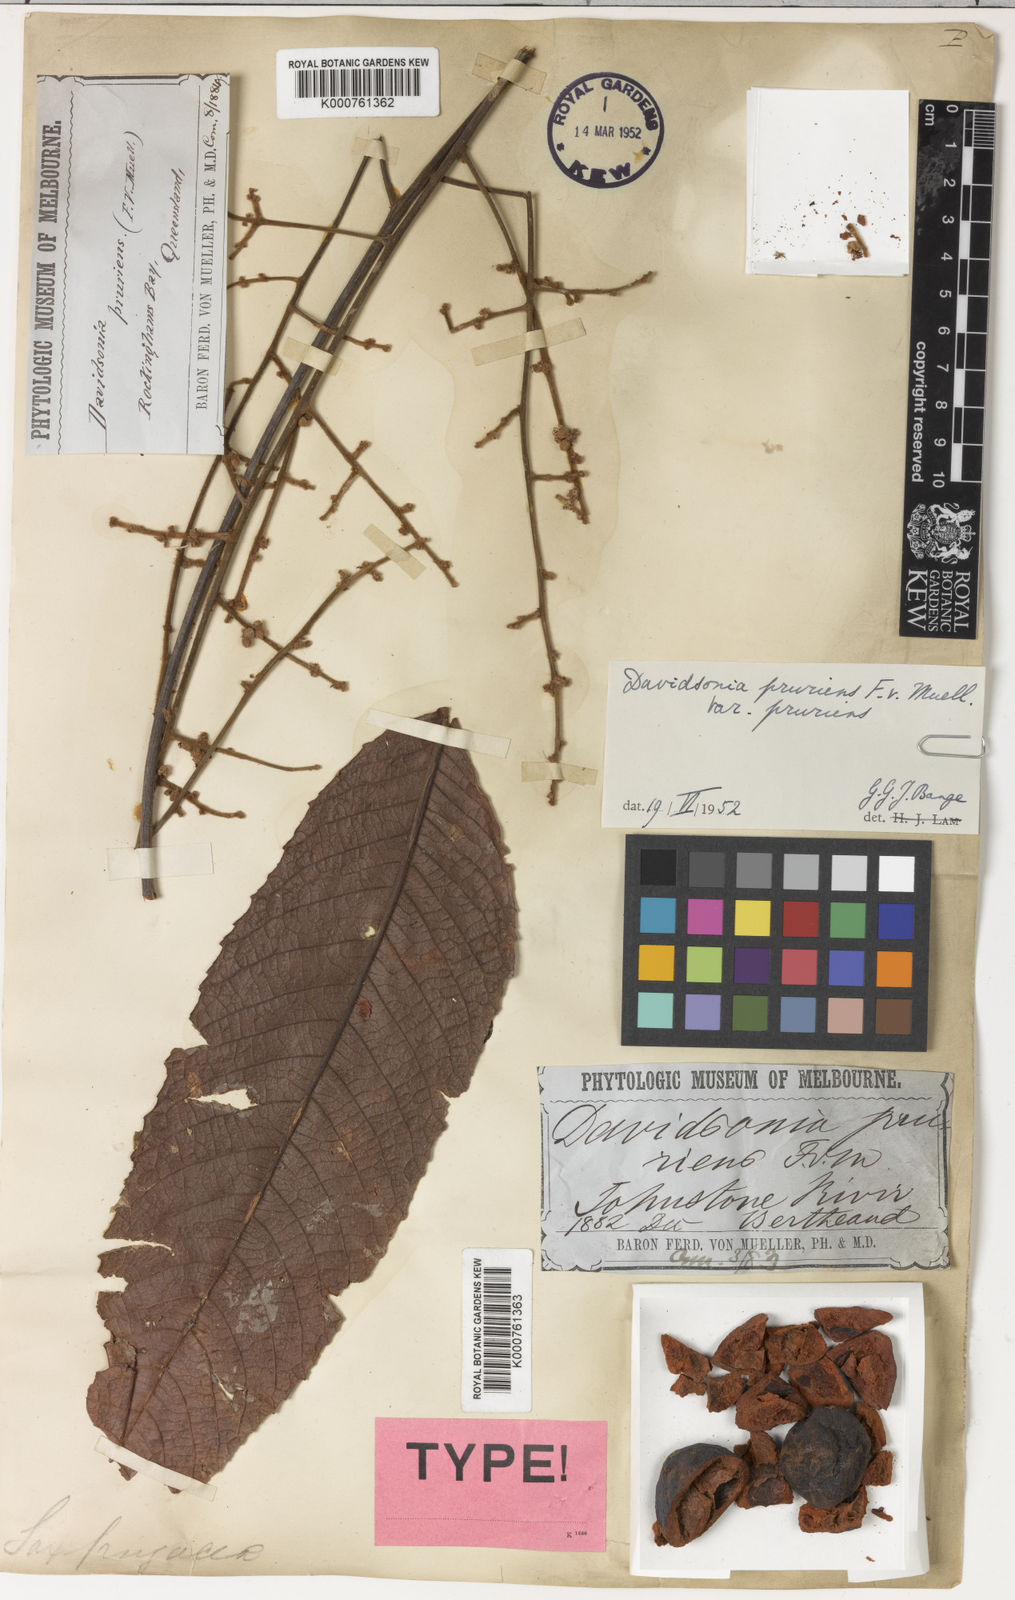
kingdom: Plantae
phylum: Tracheophyta
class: Magnoliopsida
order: Oxalidales
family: Cunoniaceae
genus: Davidsonia
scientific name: Davidsonia pruriens
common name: Do-rog
